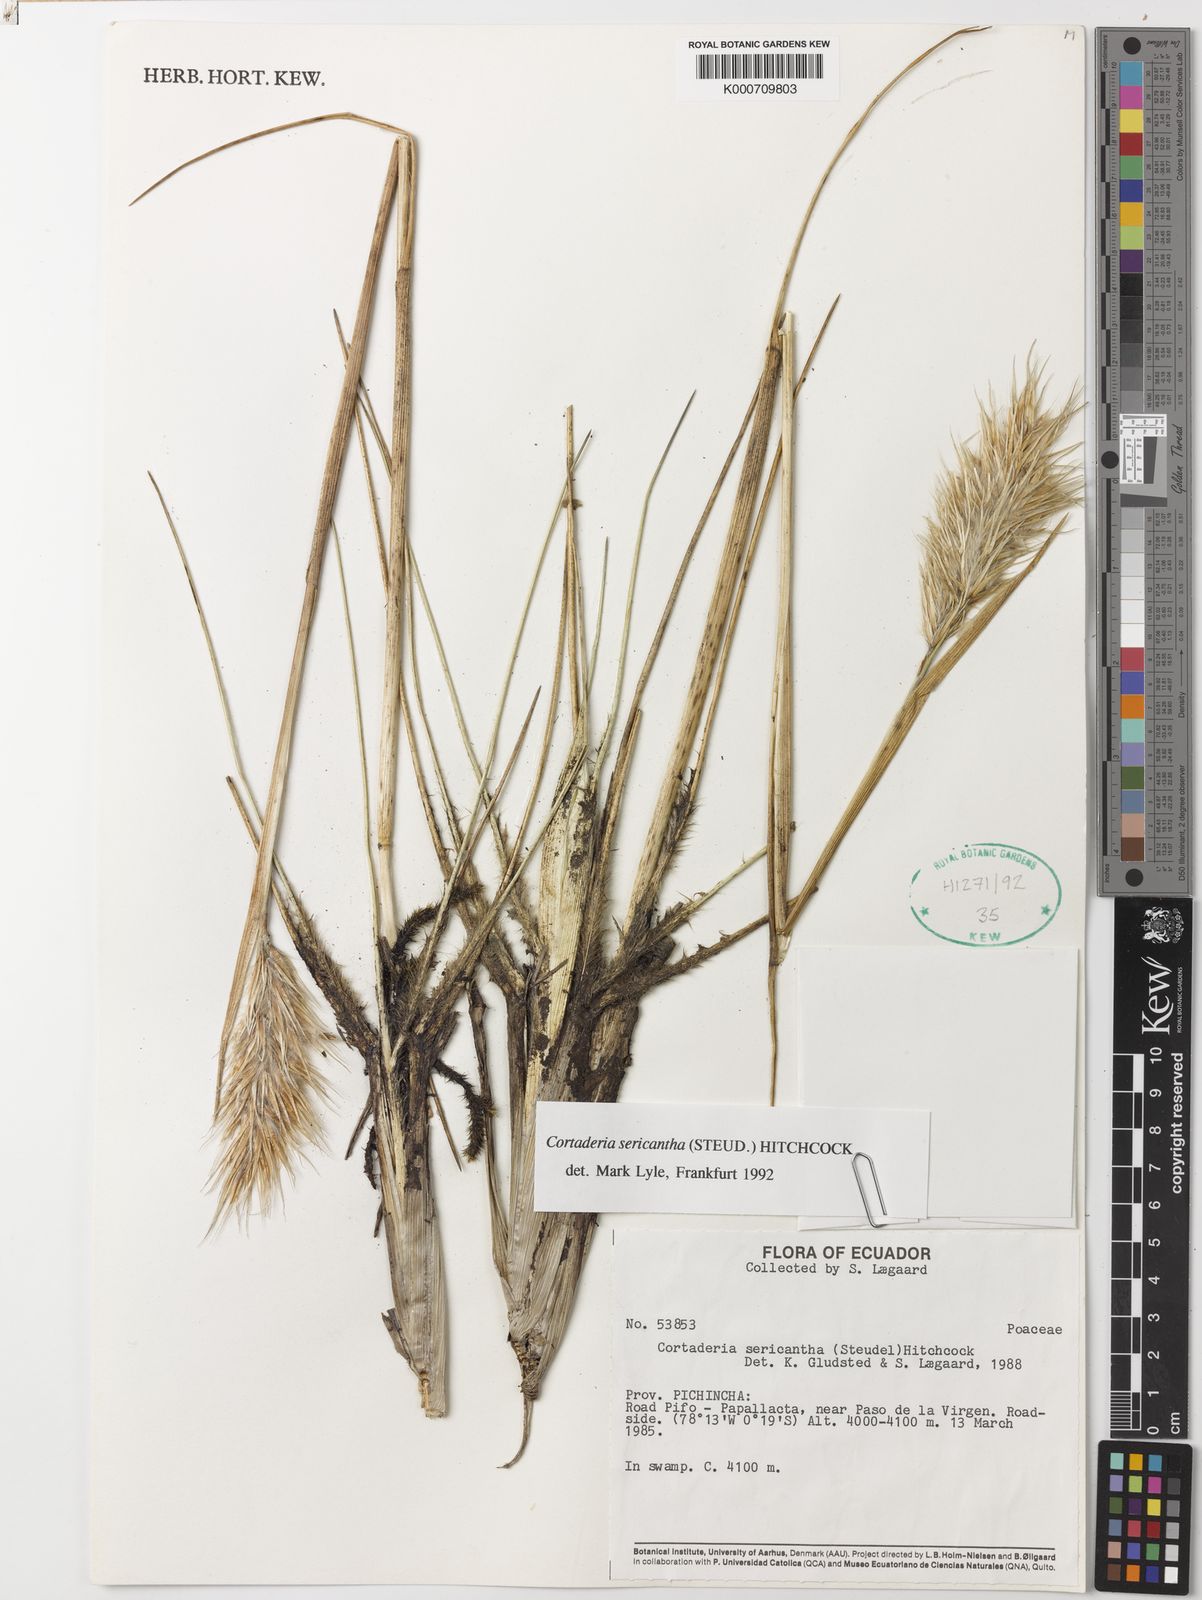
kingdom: Plantae
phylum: Tracheophyta
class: Liliopsida
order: Poales
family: Poaceae
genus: Cortaderia
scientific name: Cortaderia sericantha
